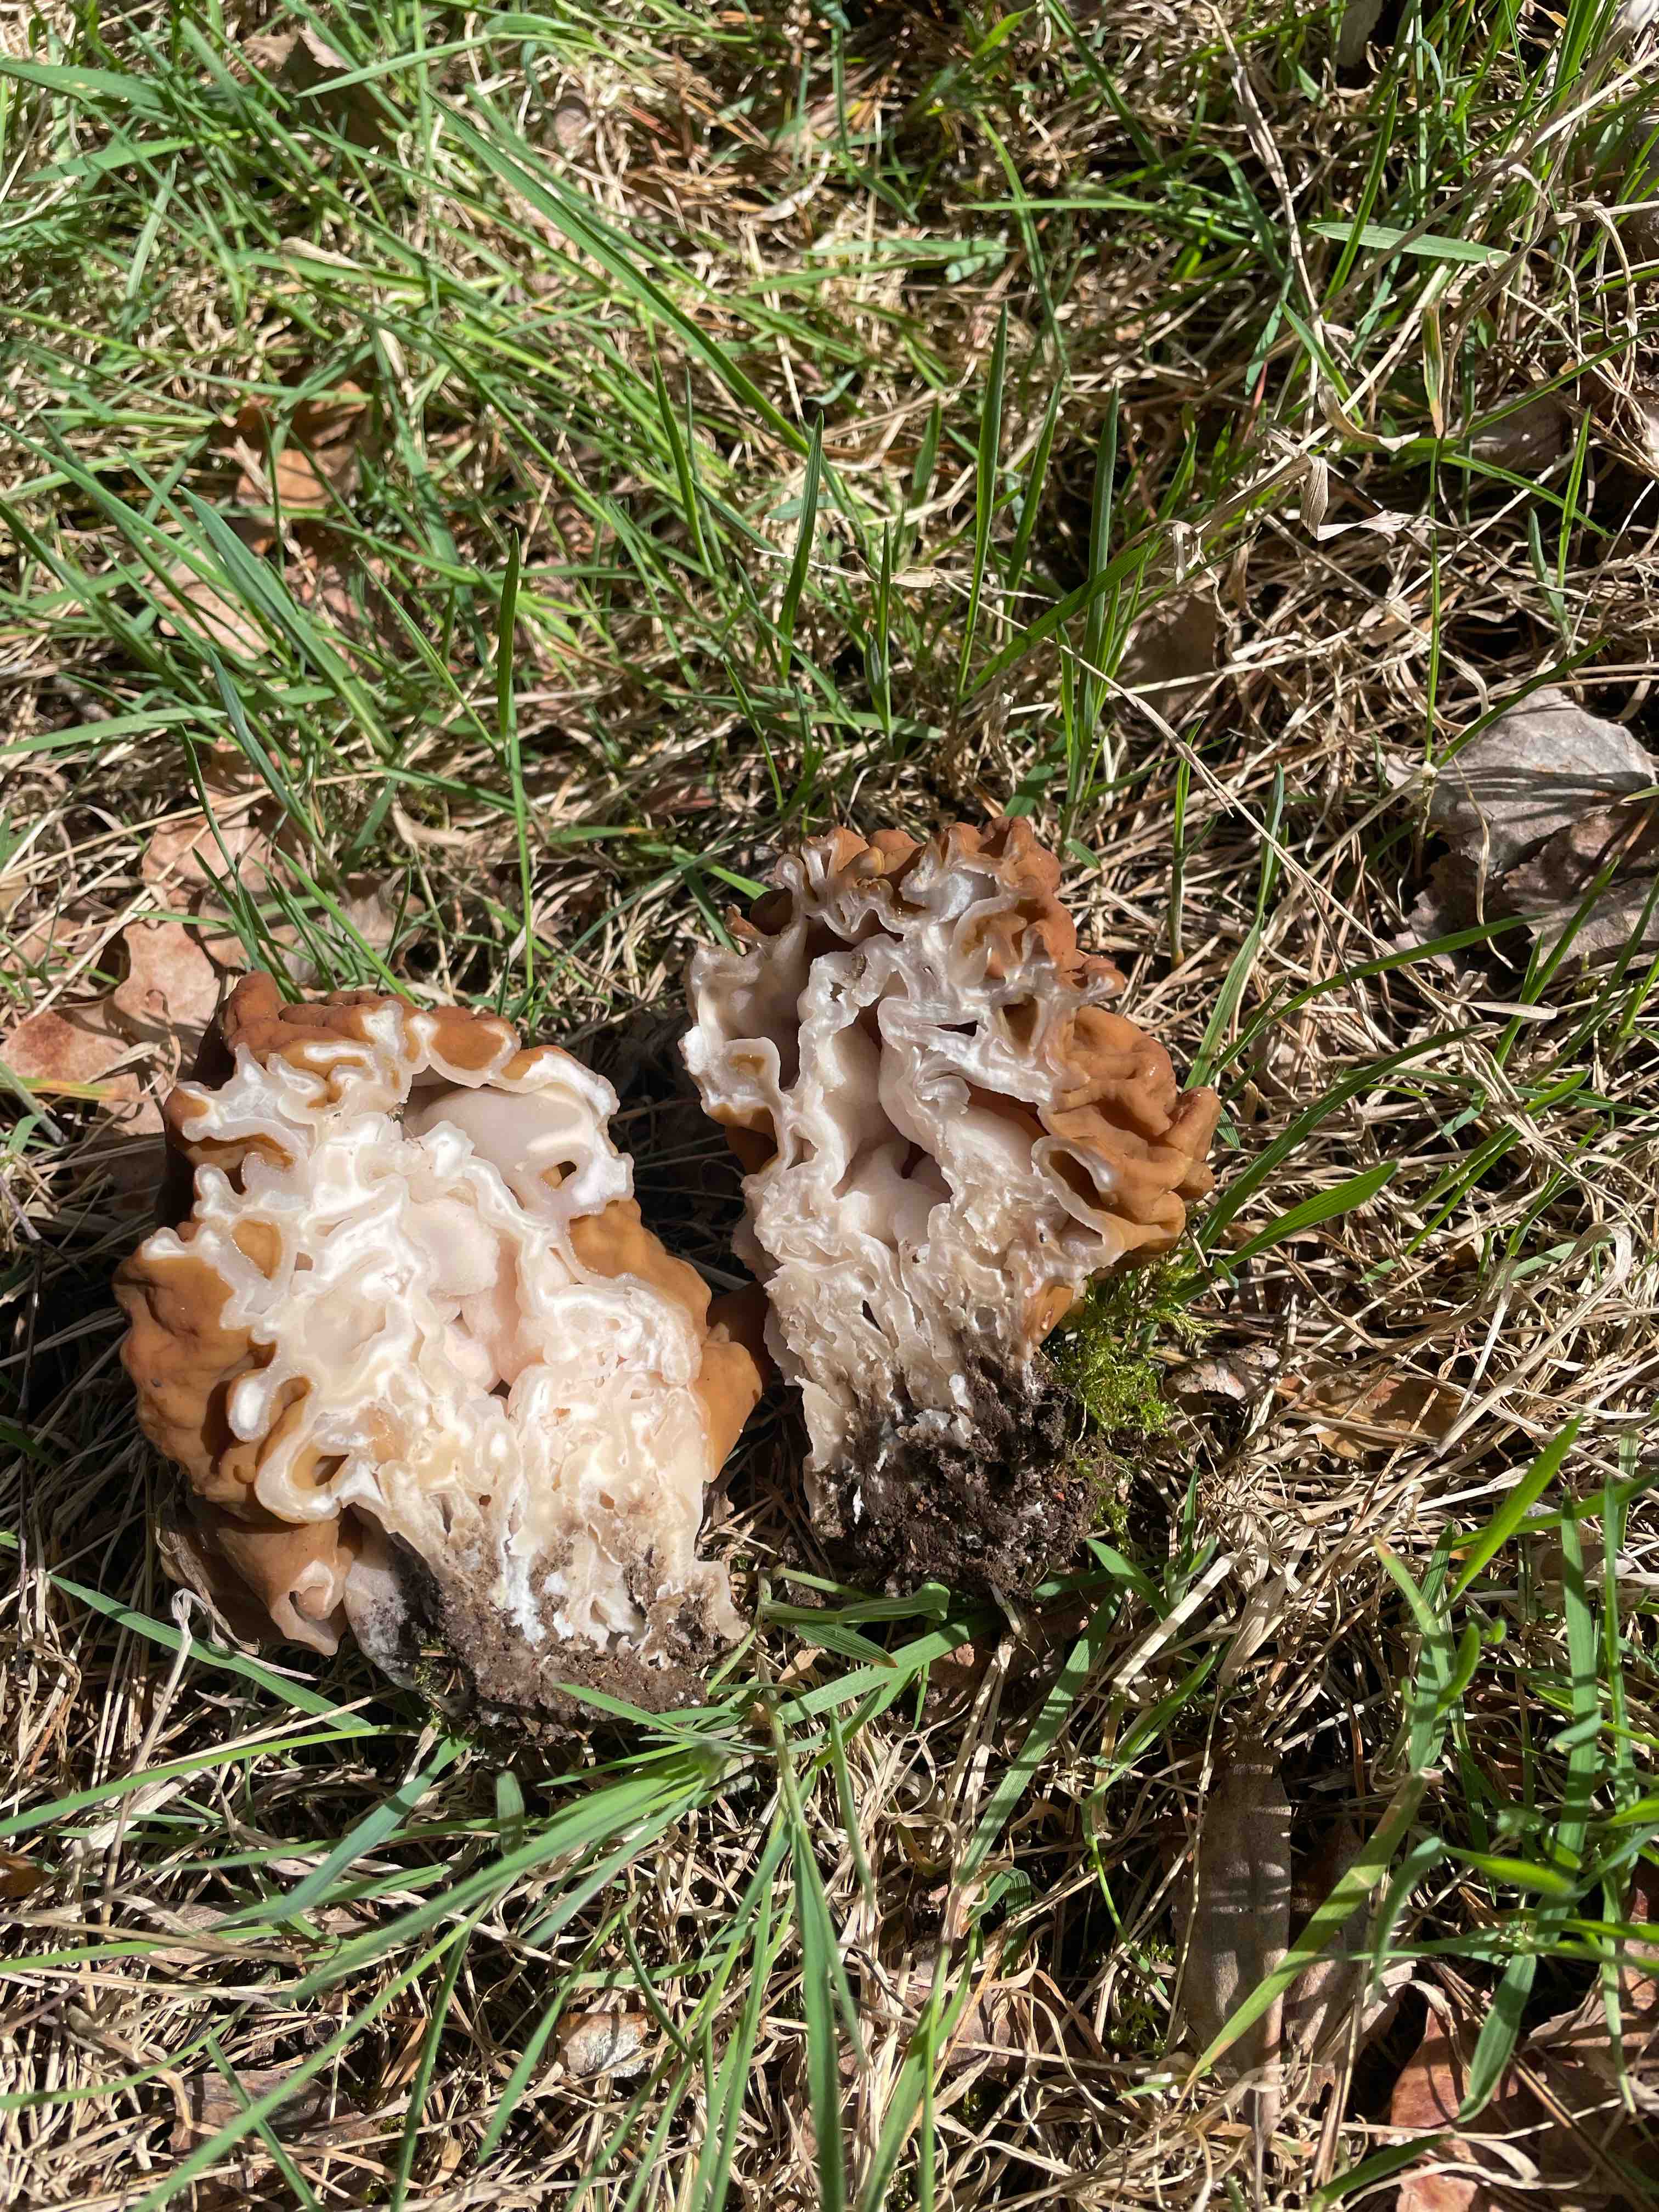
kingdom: Fungi
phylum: Ascomycota
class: Pezizomycetes
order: Pezizales
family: Discinaceae
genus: Gyromitra
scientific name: Gyromitra gigas
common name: kæmpe-stenmorkel
